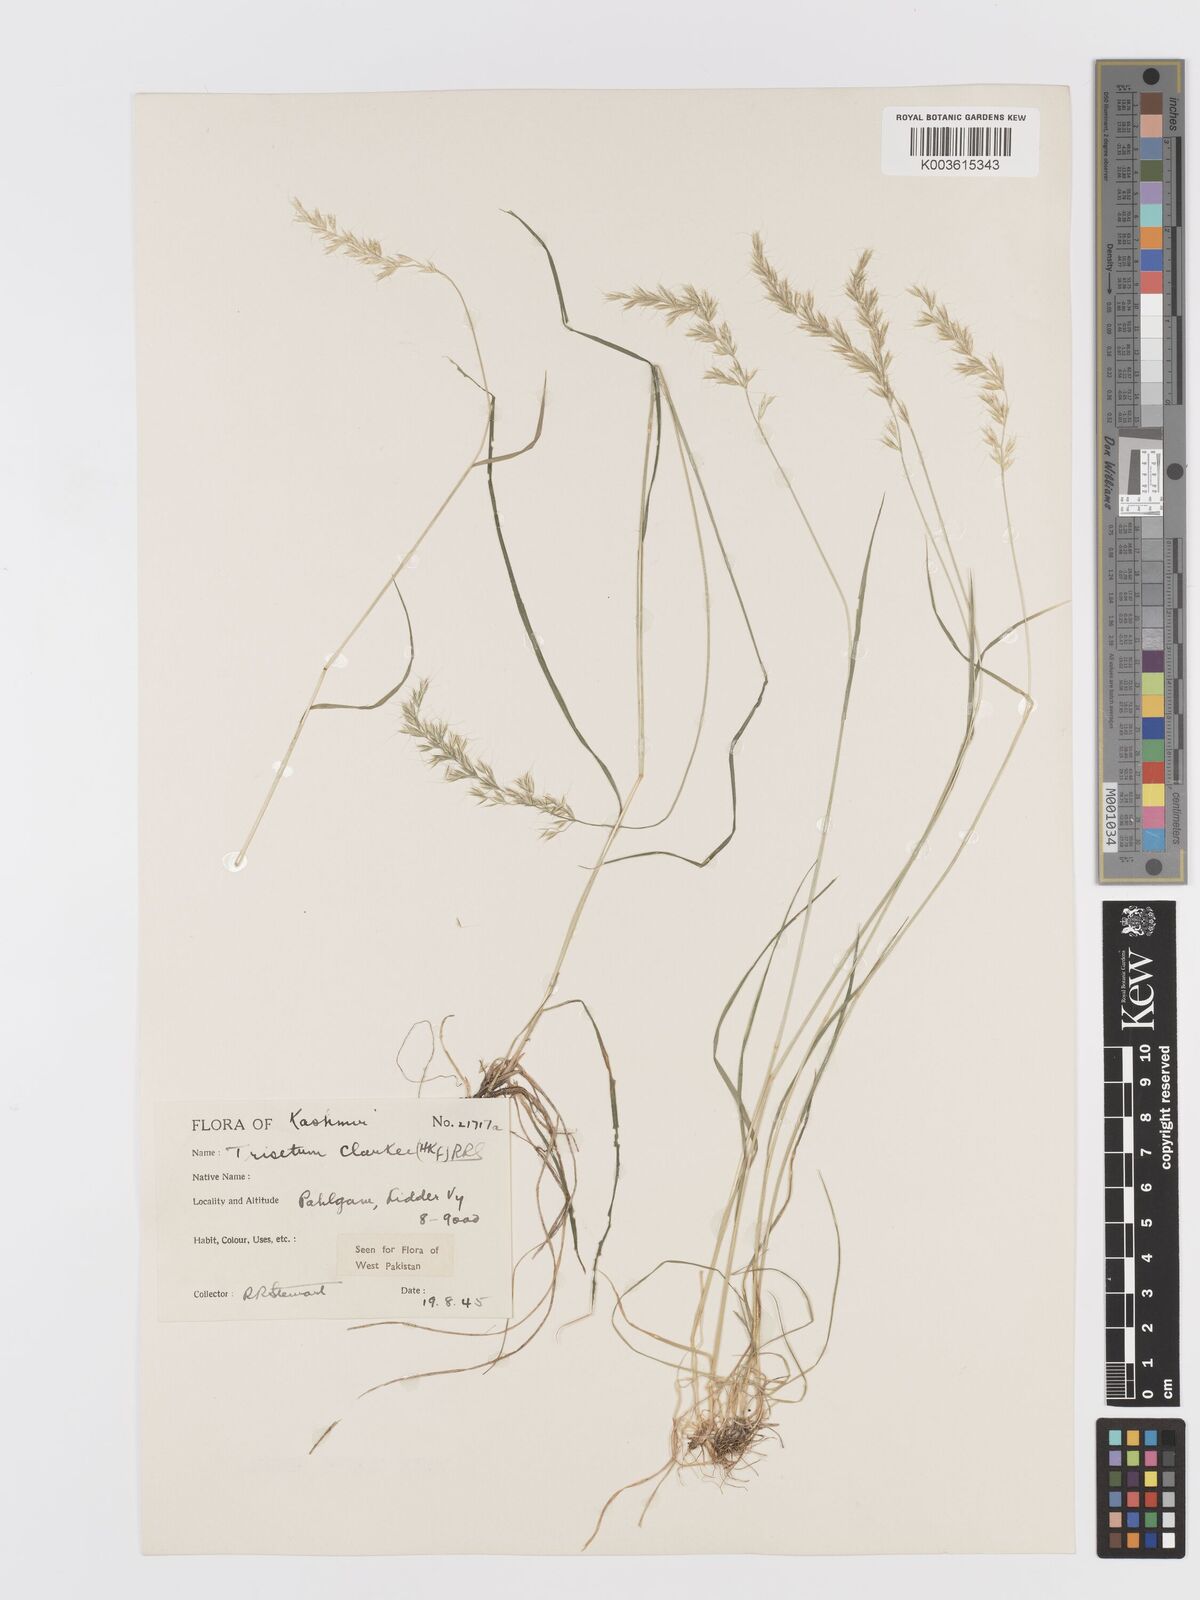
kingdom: Plantae
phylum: Tracheophyta
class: Liliopsida
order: Poales
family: Poaceae
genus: Trisetum
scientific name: Trisetum clarkei
